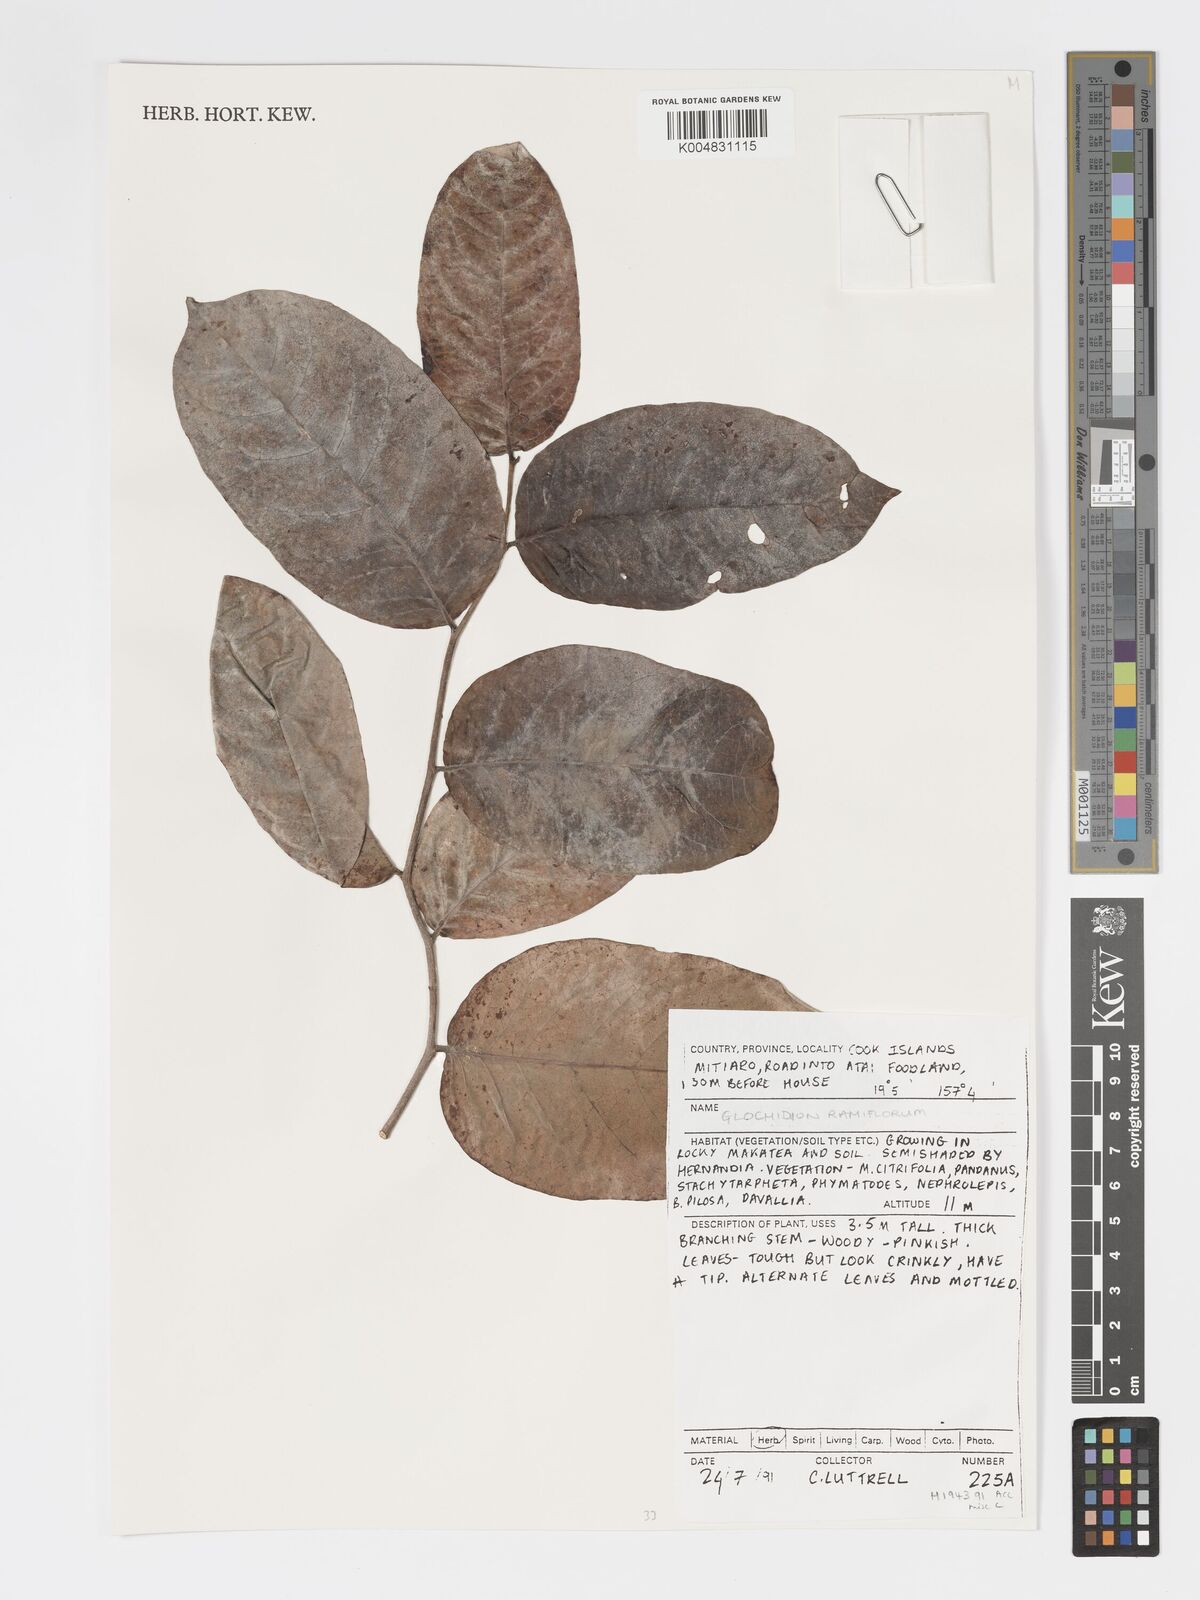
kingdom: Plantae
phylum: Tracheophyta
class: Magnoliopsida
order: Malpighiales
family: Phyllanthaceae
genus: Glochidion
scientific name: Glochidion ramiflorum
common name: Masame
